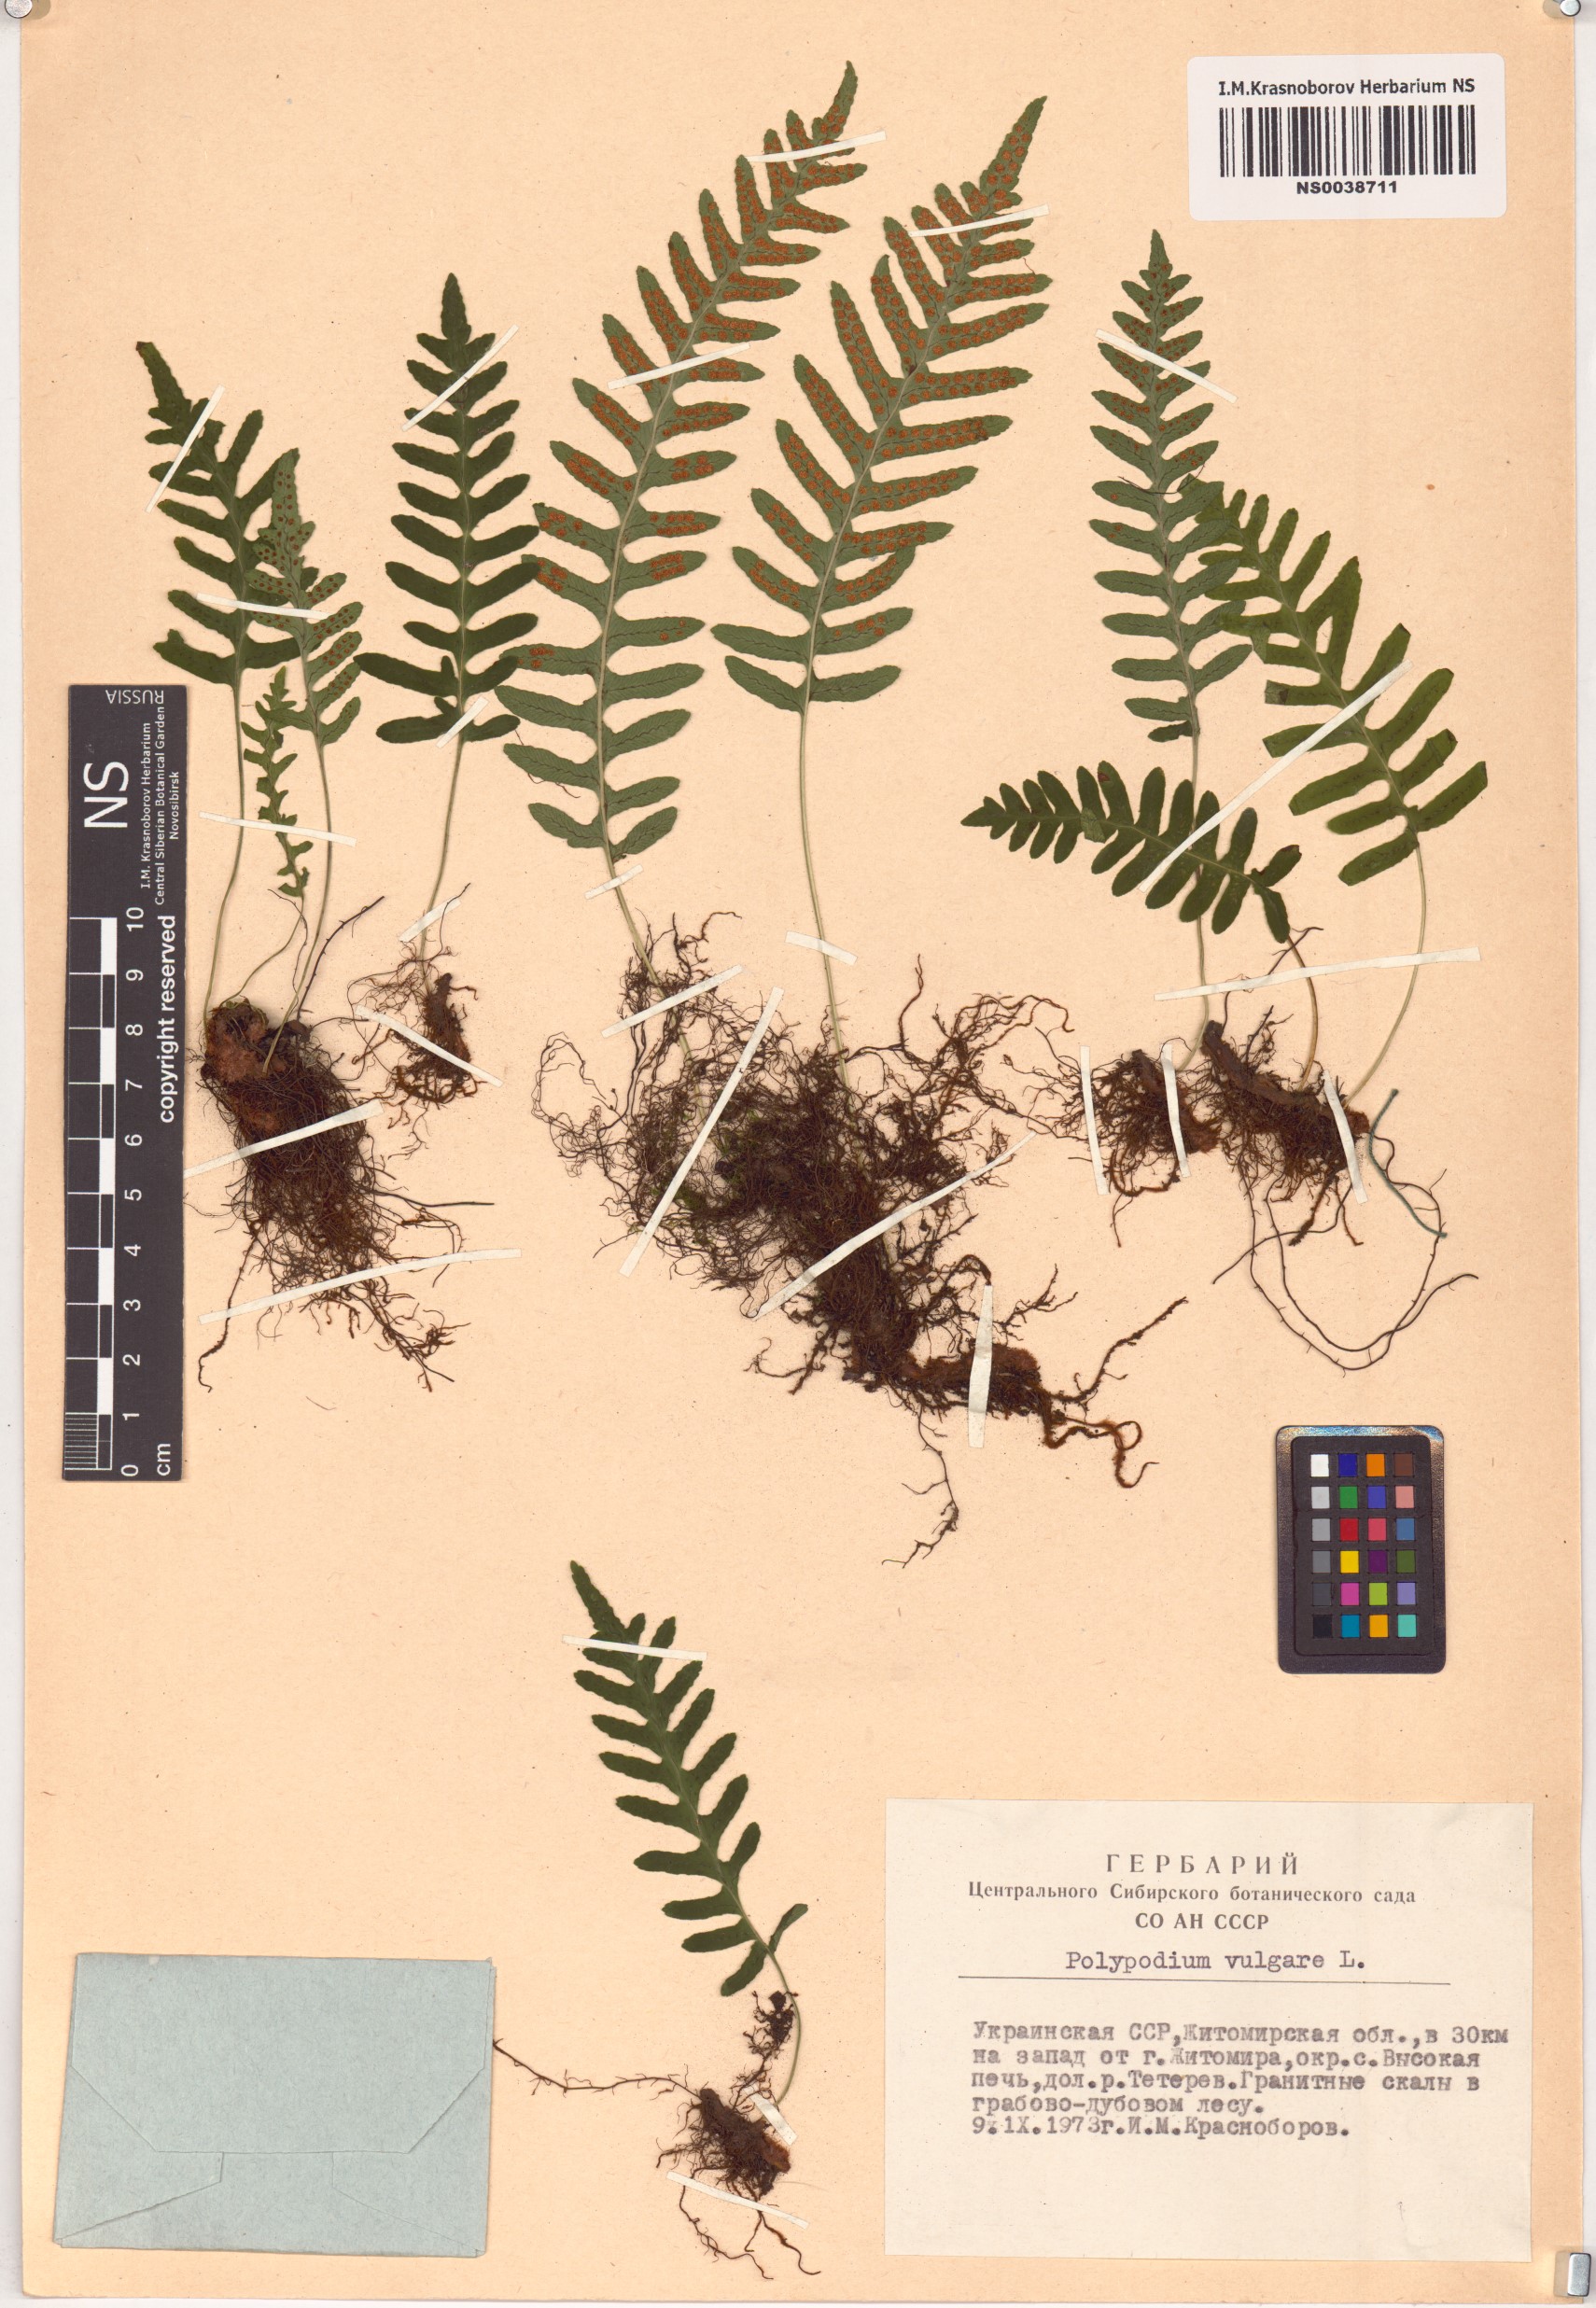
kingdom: Plantae
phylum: Tracheophyta
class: Polypodiopsida
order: Polypodiales
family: Polypodiaceae
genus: Polypodium
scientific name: Polypodium vulgare
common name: Common polypody
